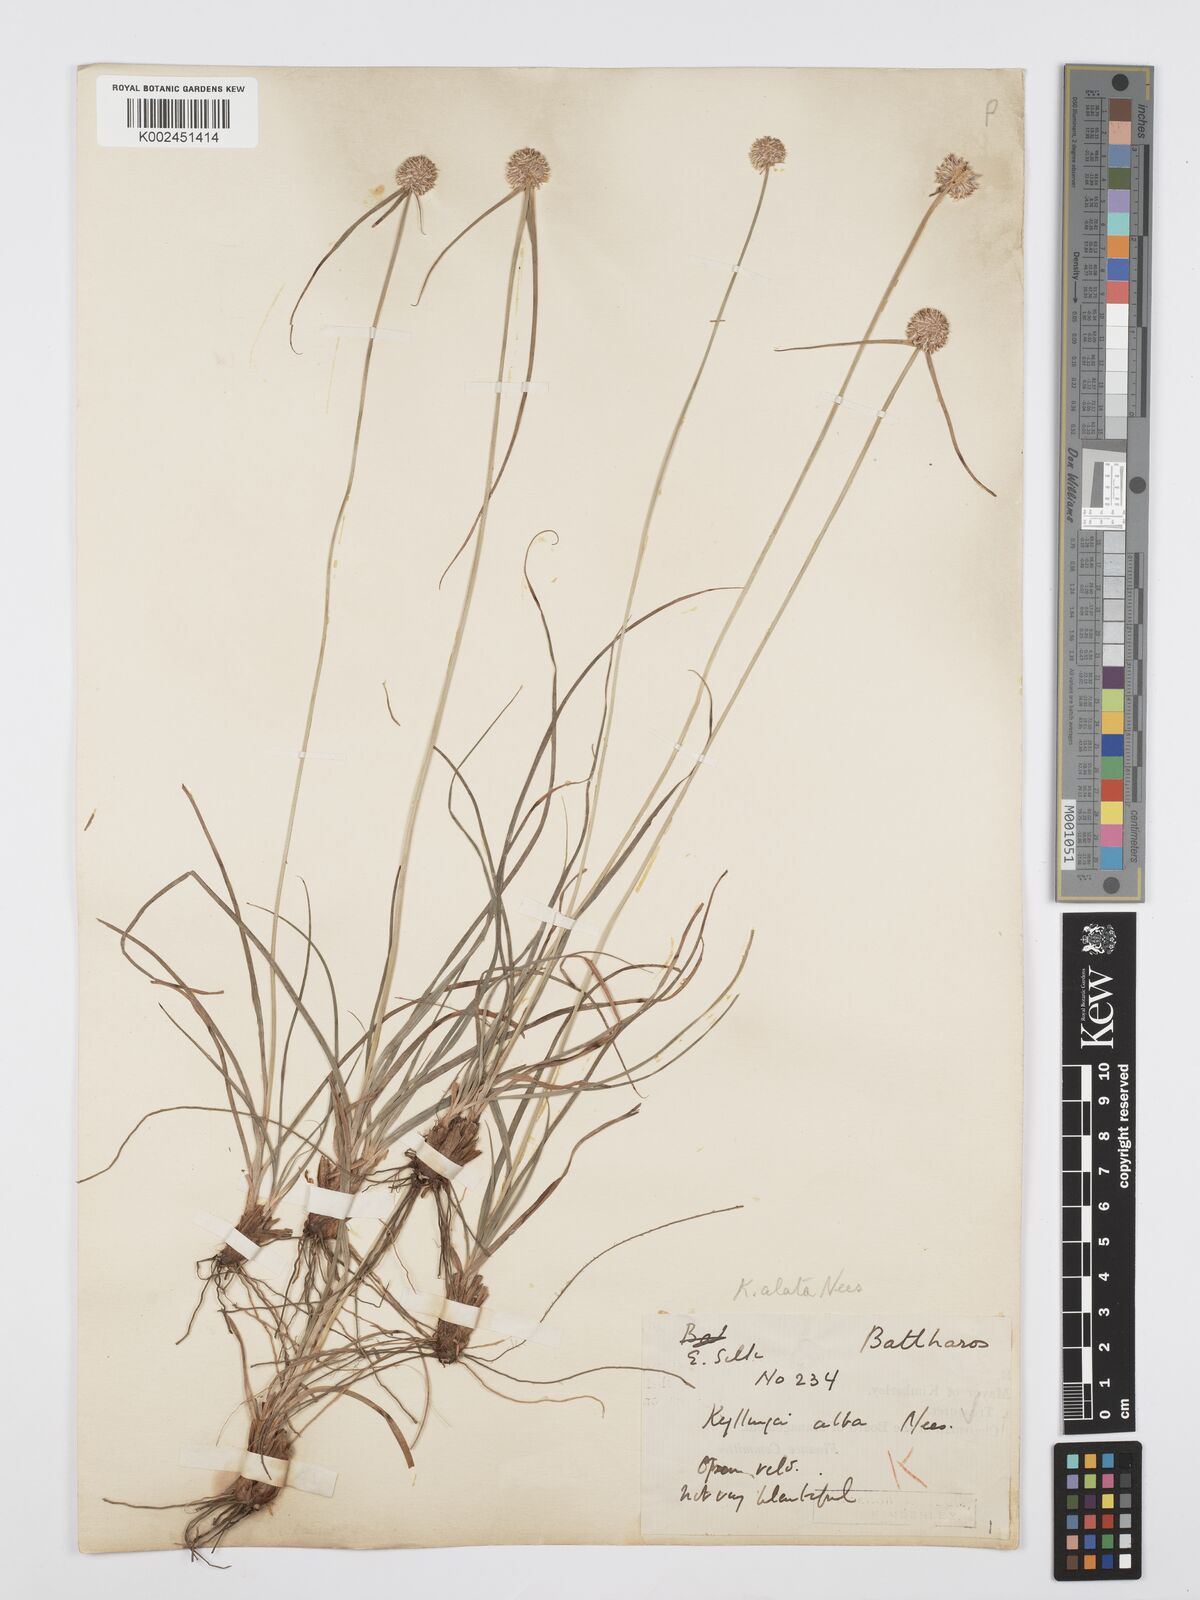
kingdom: Plantae
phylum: Tracheophyta
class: Liliopsida
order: Poales
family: Cyperaceae
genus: Cyperus
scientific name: Cyperus
